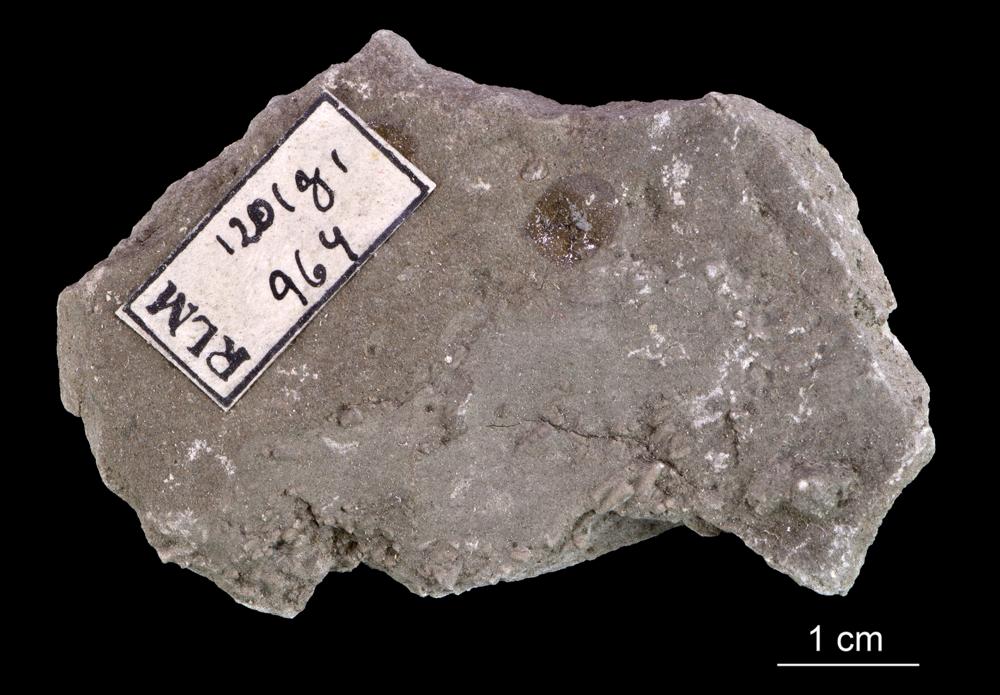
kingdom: Animalia
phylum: Annelida
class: Polychaeta
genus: Volborthella
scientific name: Volborthella tenuis
